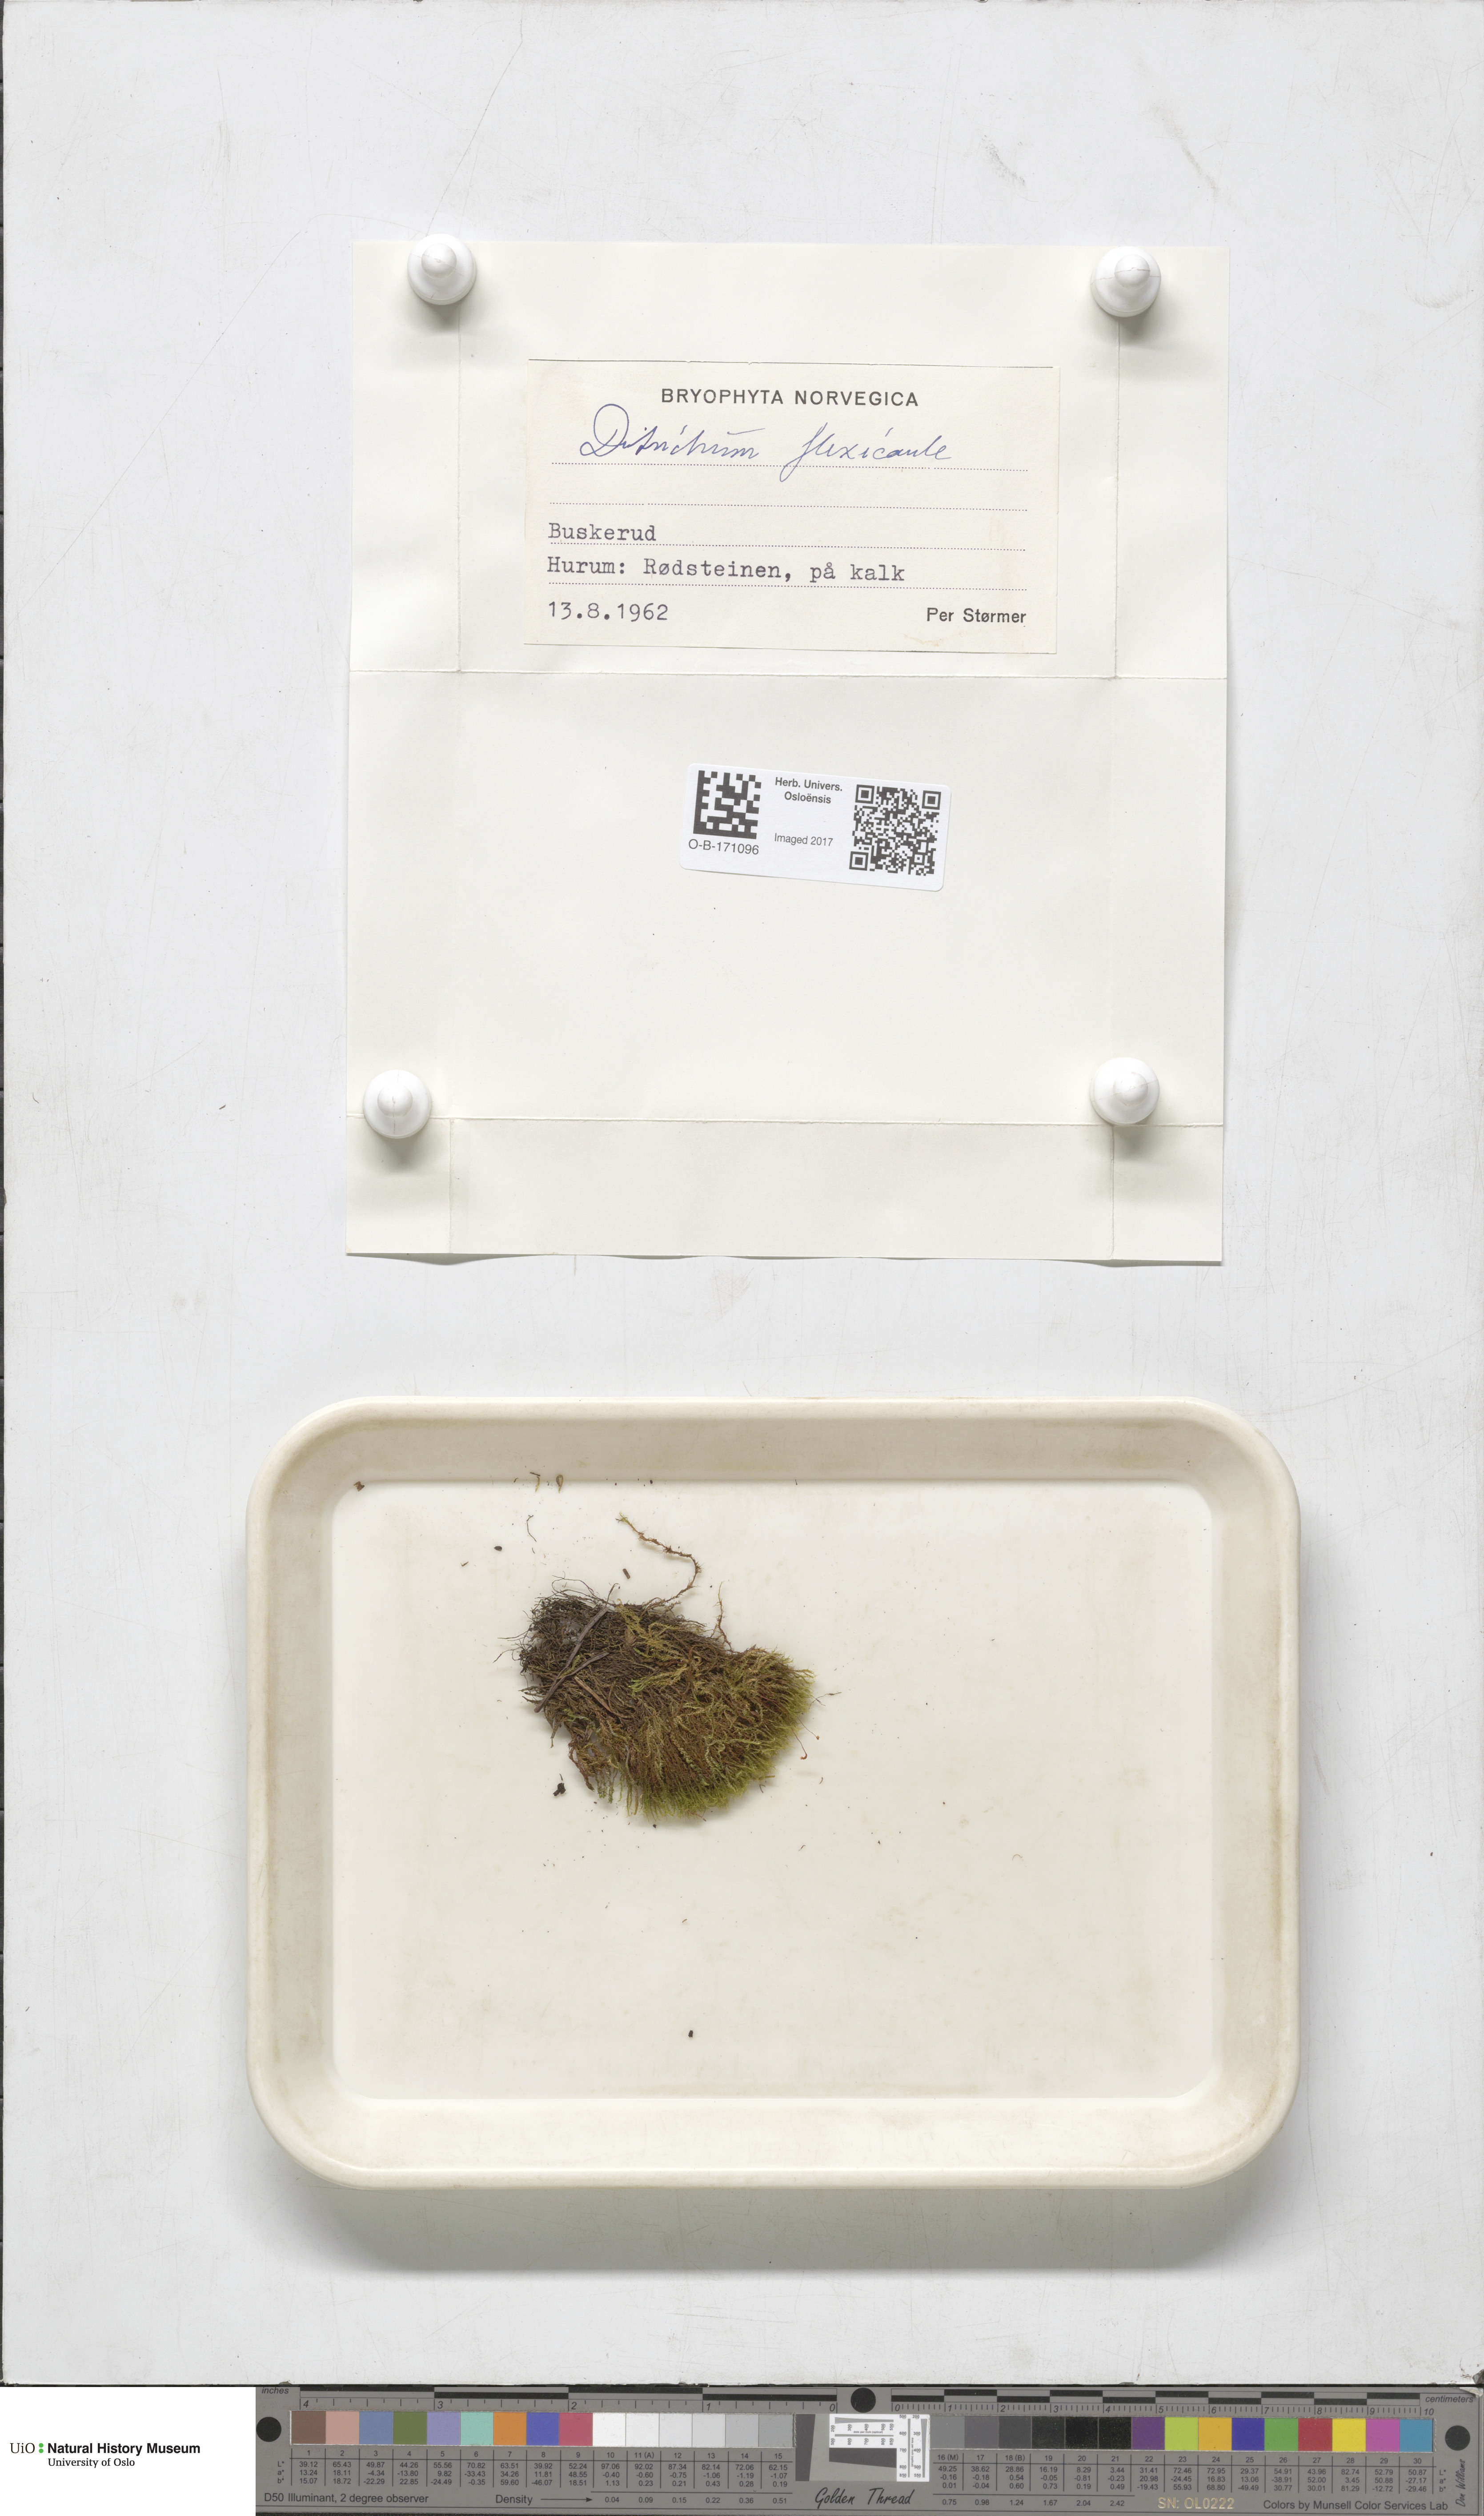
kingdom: Plantae
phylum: Bryophyta
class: Bryopsida
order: Scouleriales
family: Flexitrichaceae
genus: Flexitrichum
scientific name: Flexitrichum flexicaule
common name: Bendy ditrichum
